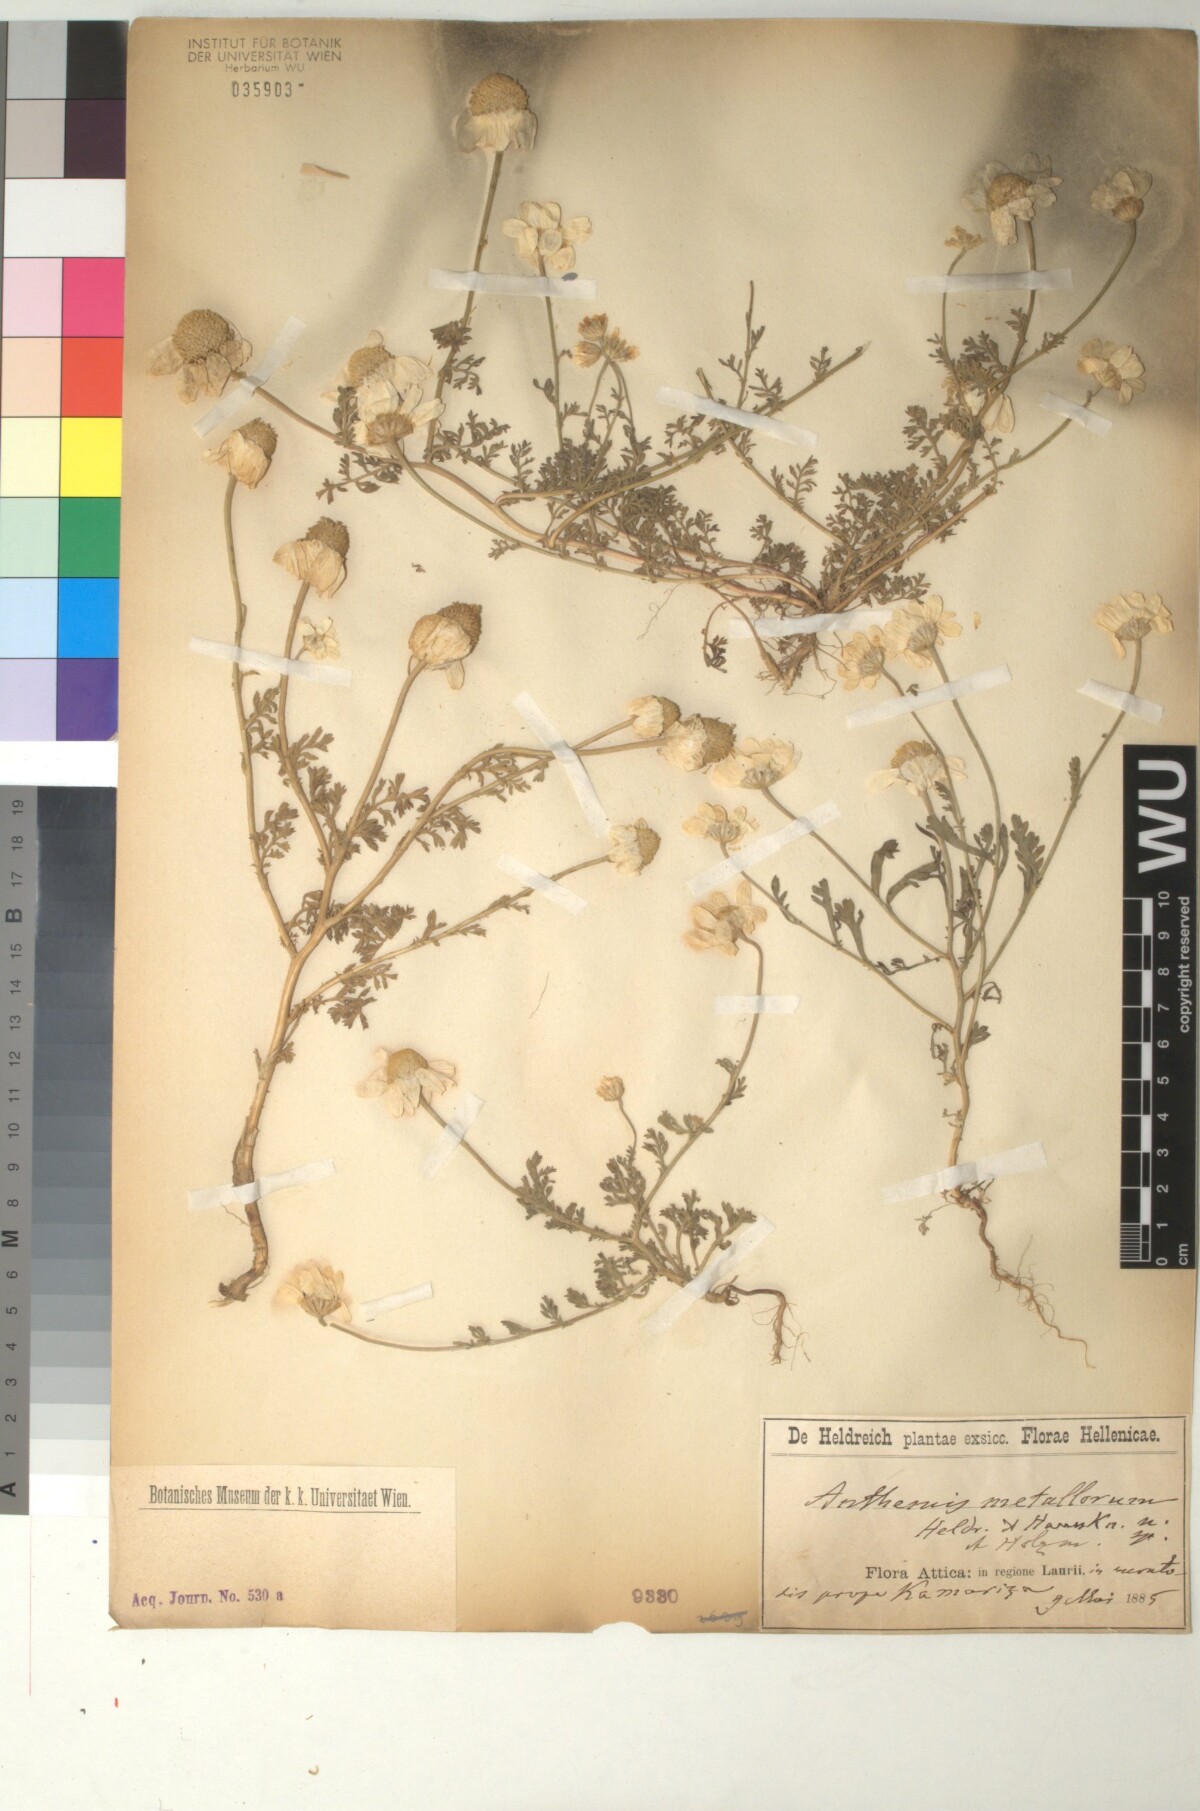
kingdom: Plantae
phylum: Tracheophyta
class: Magnoliopsida
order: Asterales
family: Asteraceae
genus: Anthemis
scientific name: Anthemis auriculata
